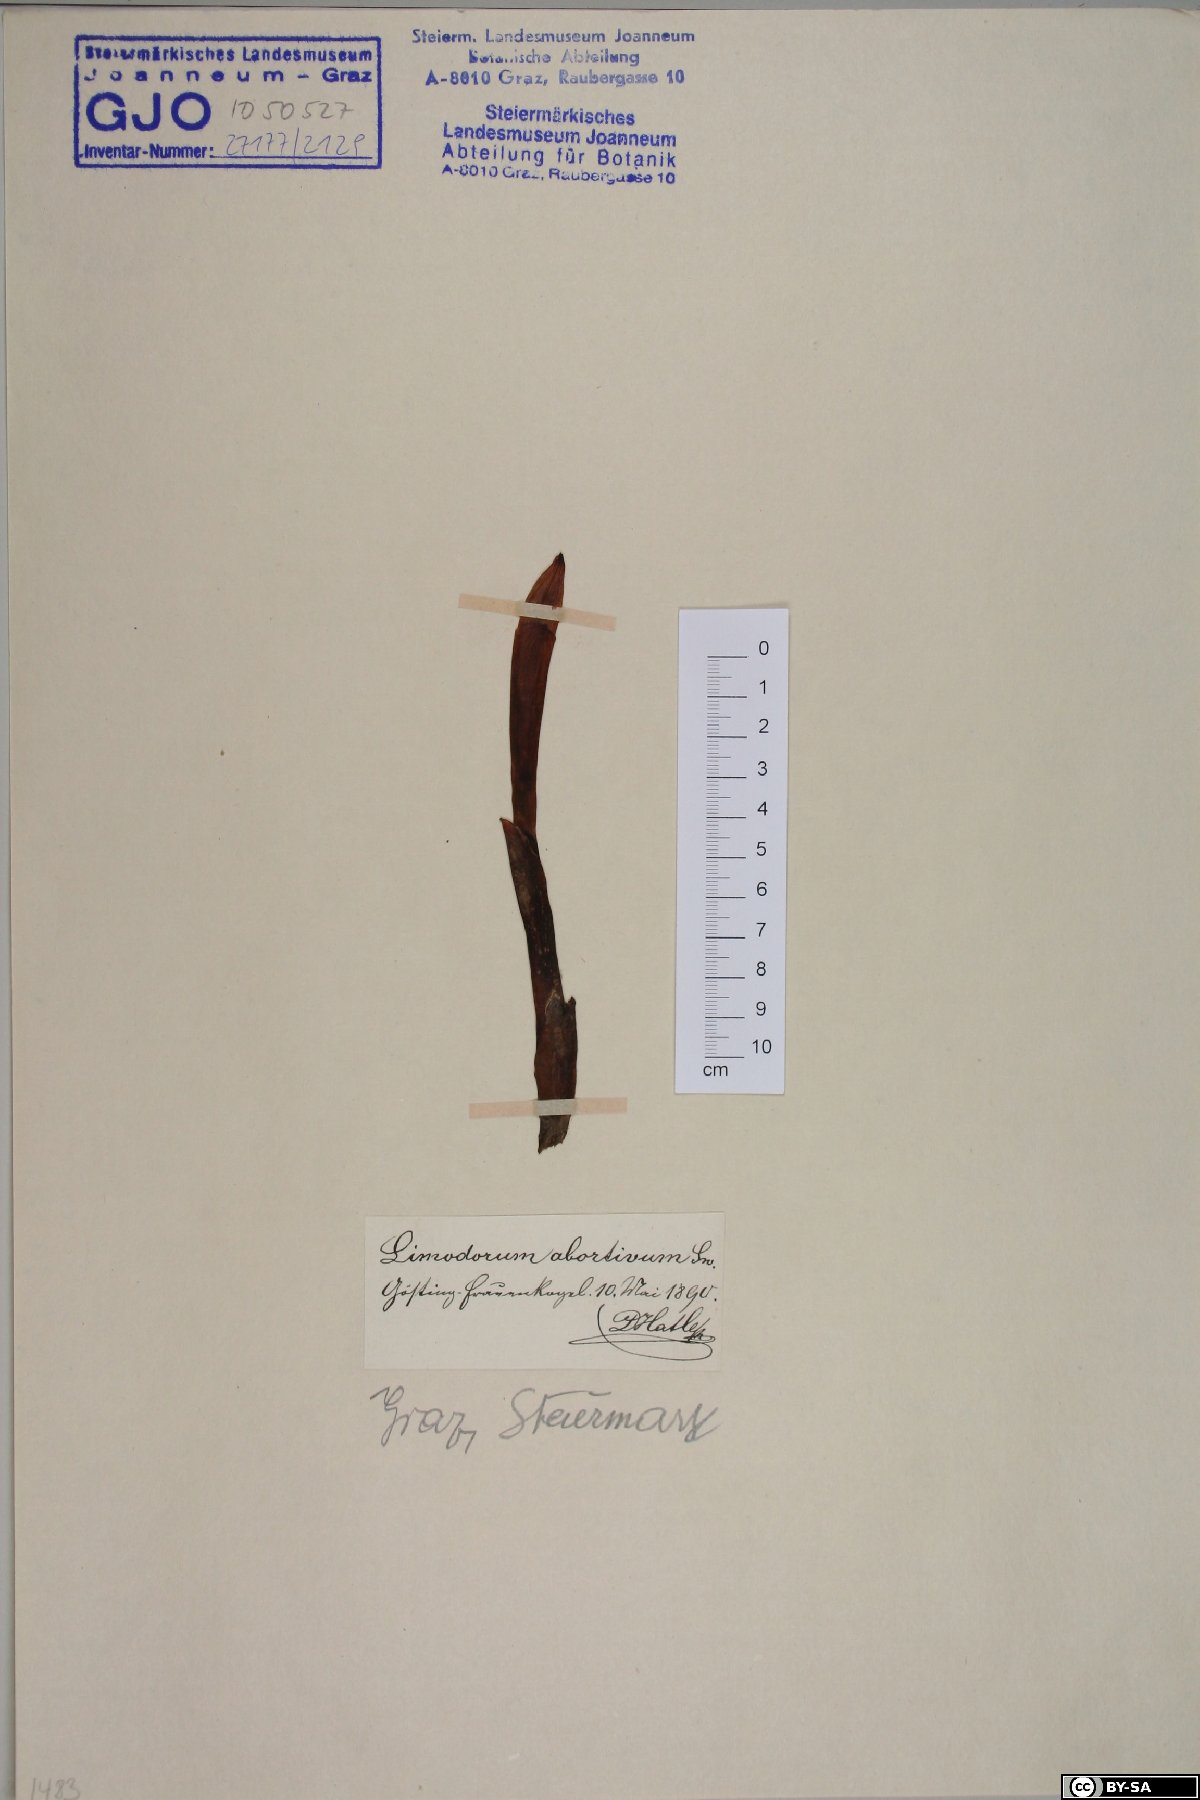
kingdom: Plantae
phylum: Tracheophyta
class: Liliopsida
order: Asparagales
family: Orchidaceae
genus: Limodorum
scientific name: Limodorum abortivum
